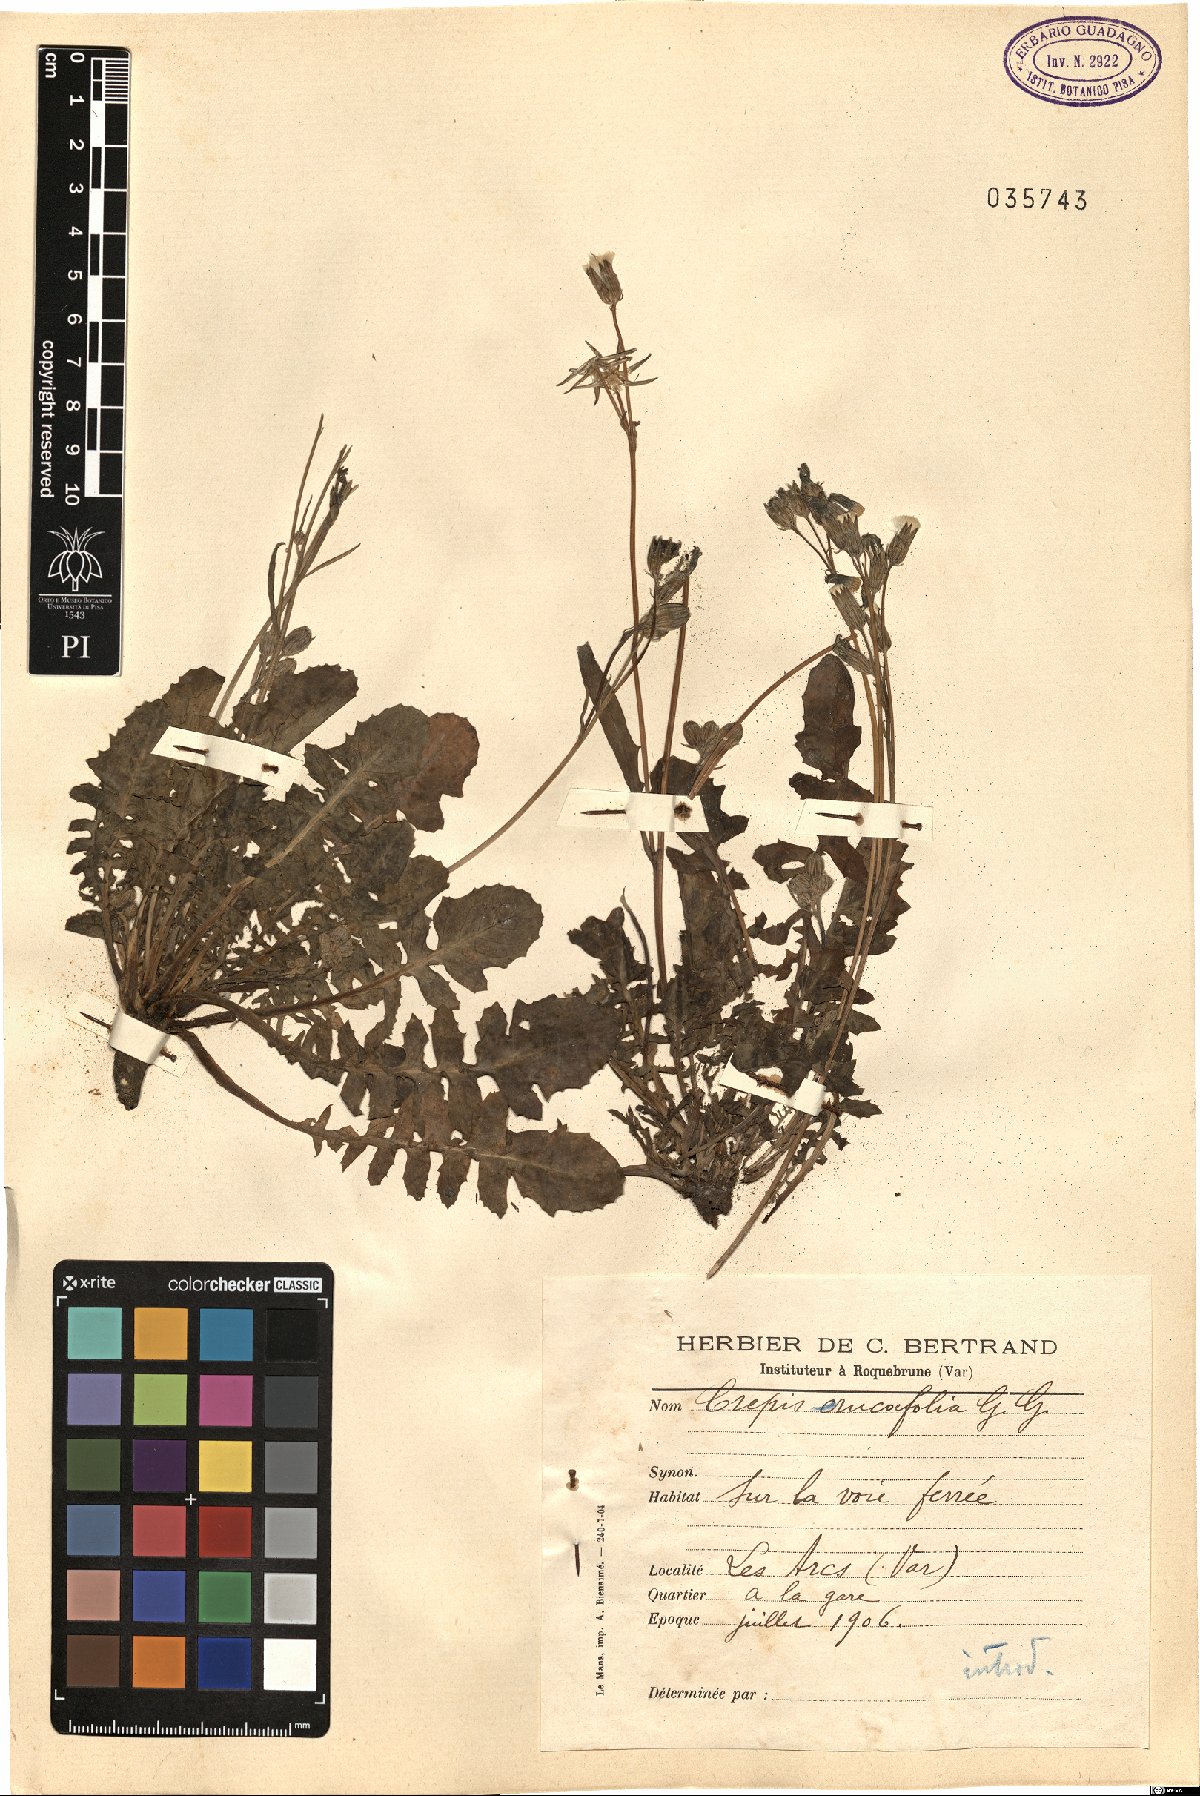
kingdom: Plantae
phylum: Tracheophyta
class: Magnoliopsida
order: Asterales
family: Asteraceae
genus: Crepis
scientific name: Crepis bursifolia
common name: Italian hawksbeard
